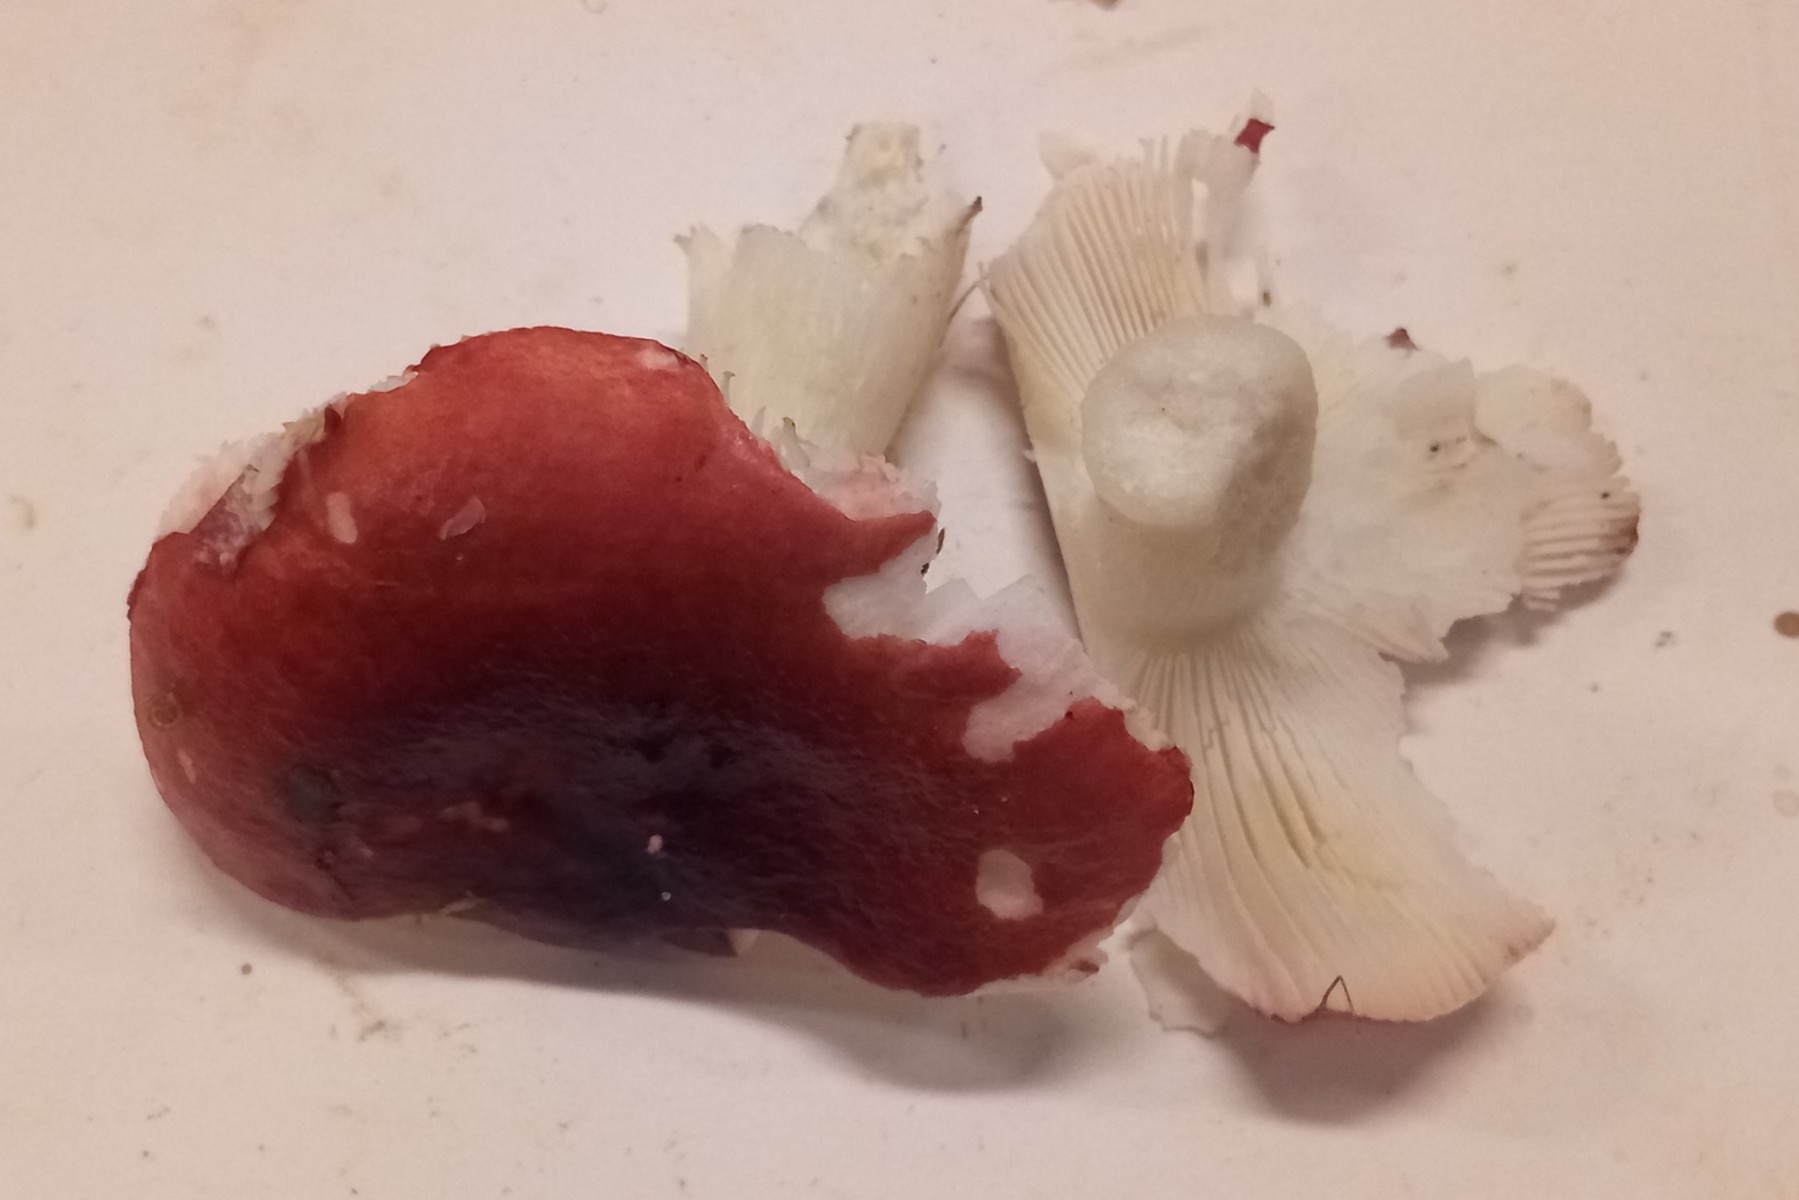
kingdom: Fungi
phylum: Basidiomycota
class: Agaricomycetes
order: Russulales
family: Russulaceae
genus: Russula
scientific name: Russula atrorubens
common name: sortrød skørhat
